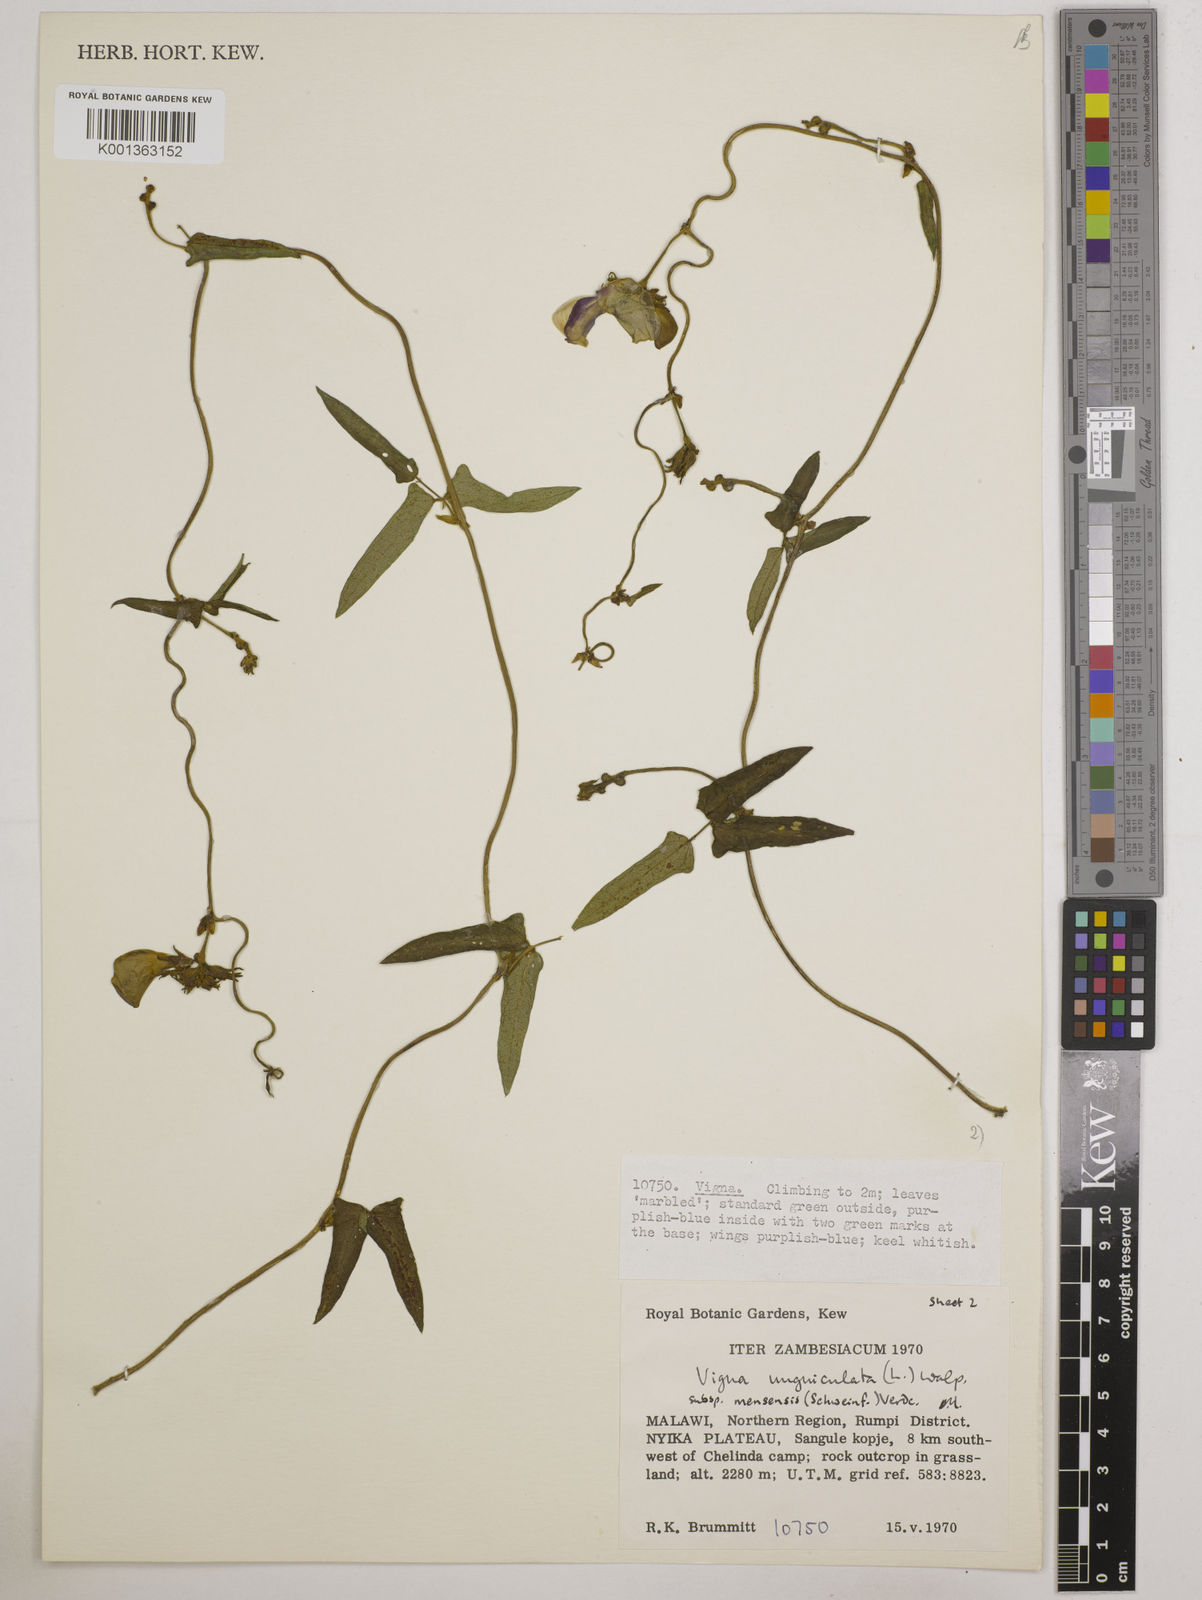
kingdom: Plantae
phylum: Tracheophyta
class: Magnoliopsida
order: Fabales
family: Fabaceae
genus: Vigna
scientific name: Vigna unguiculata
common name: Cowpea
